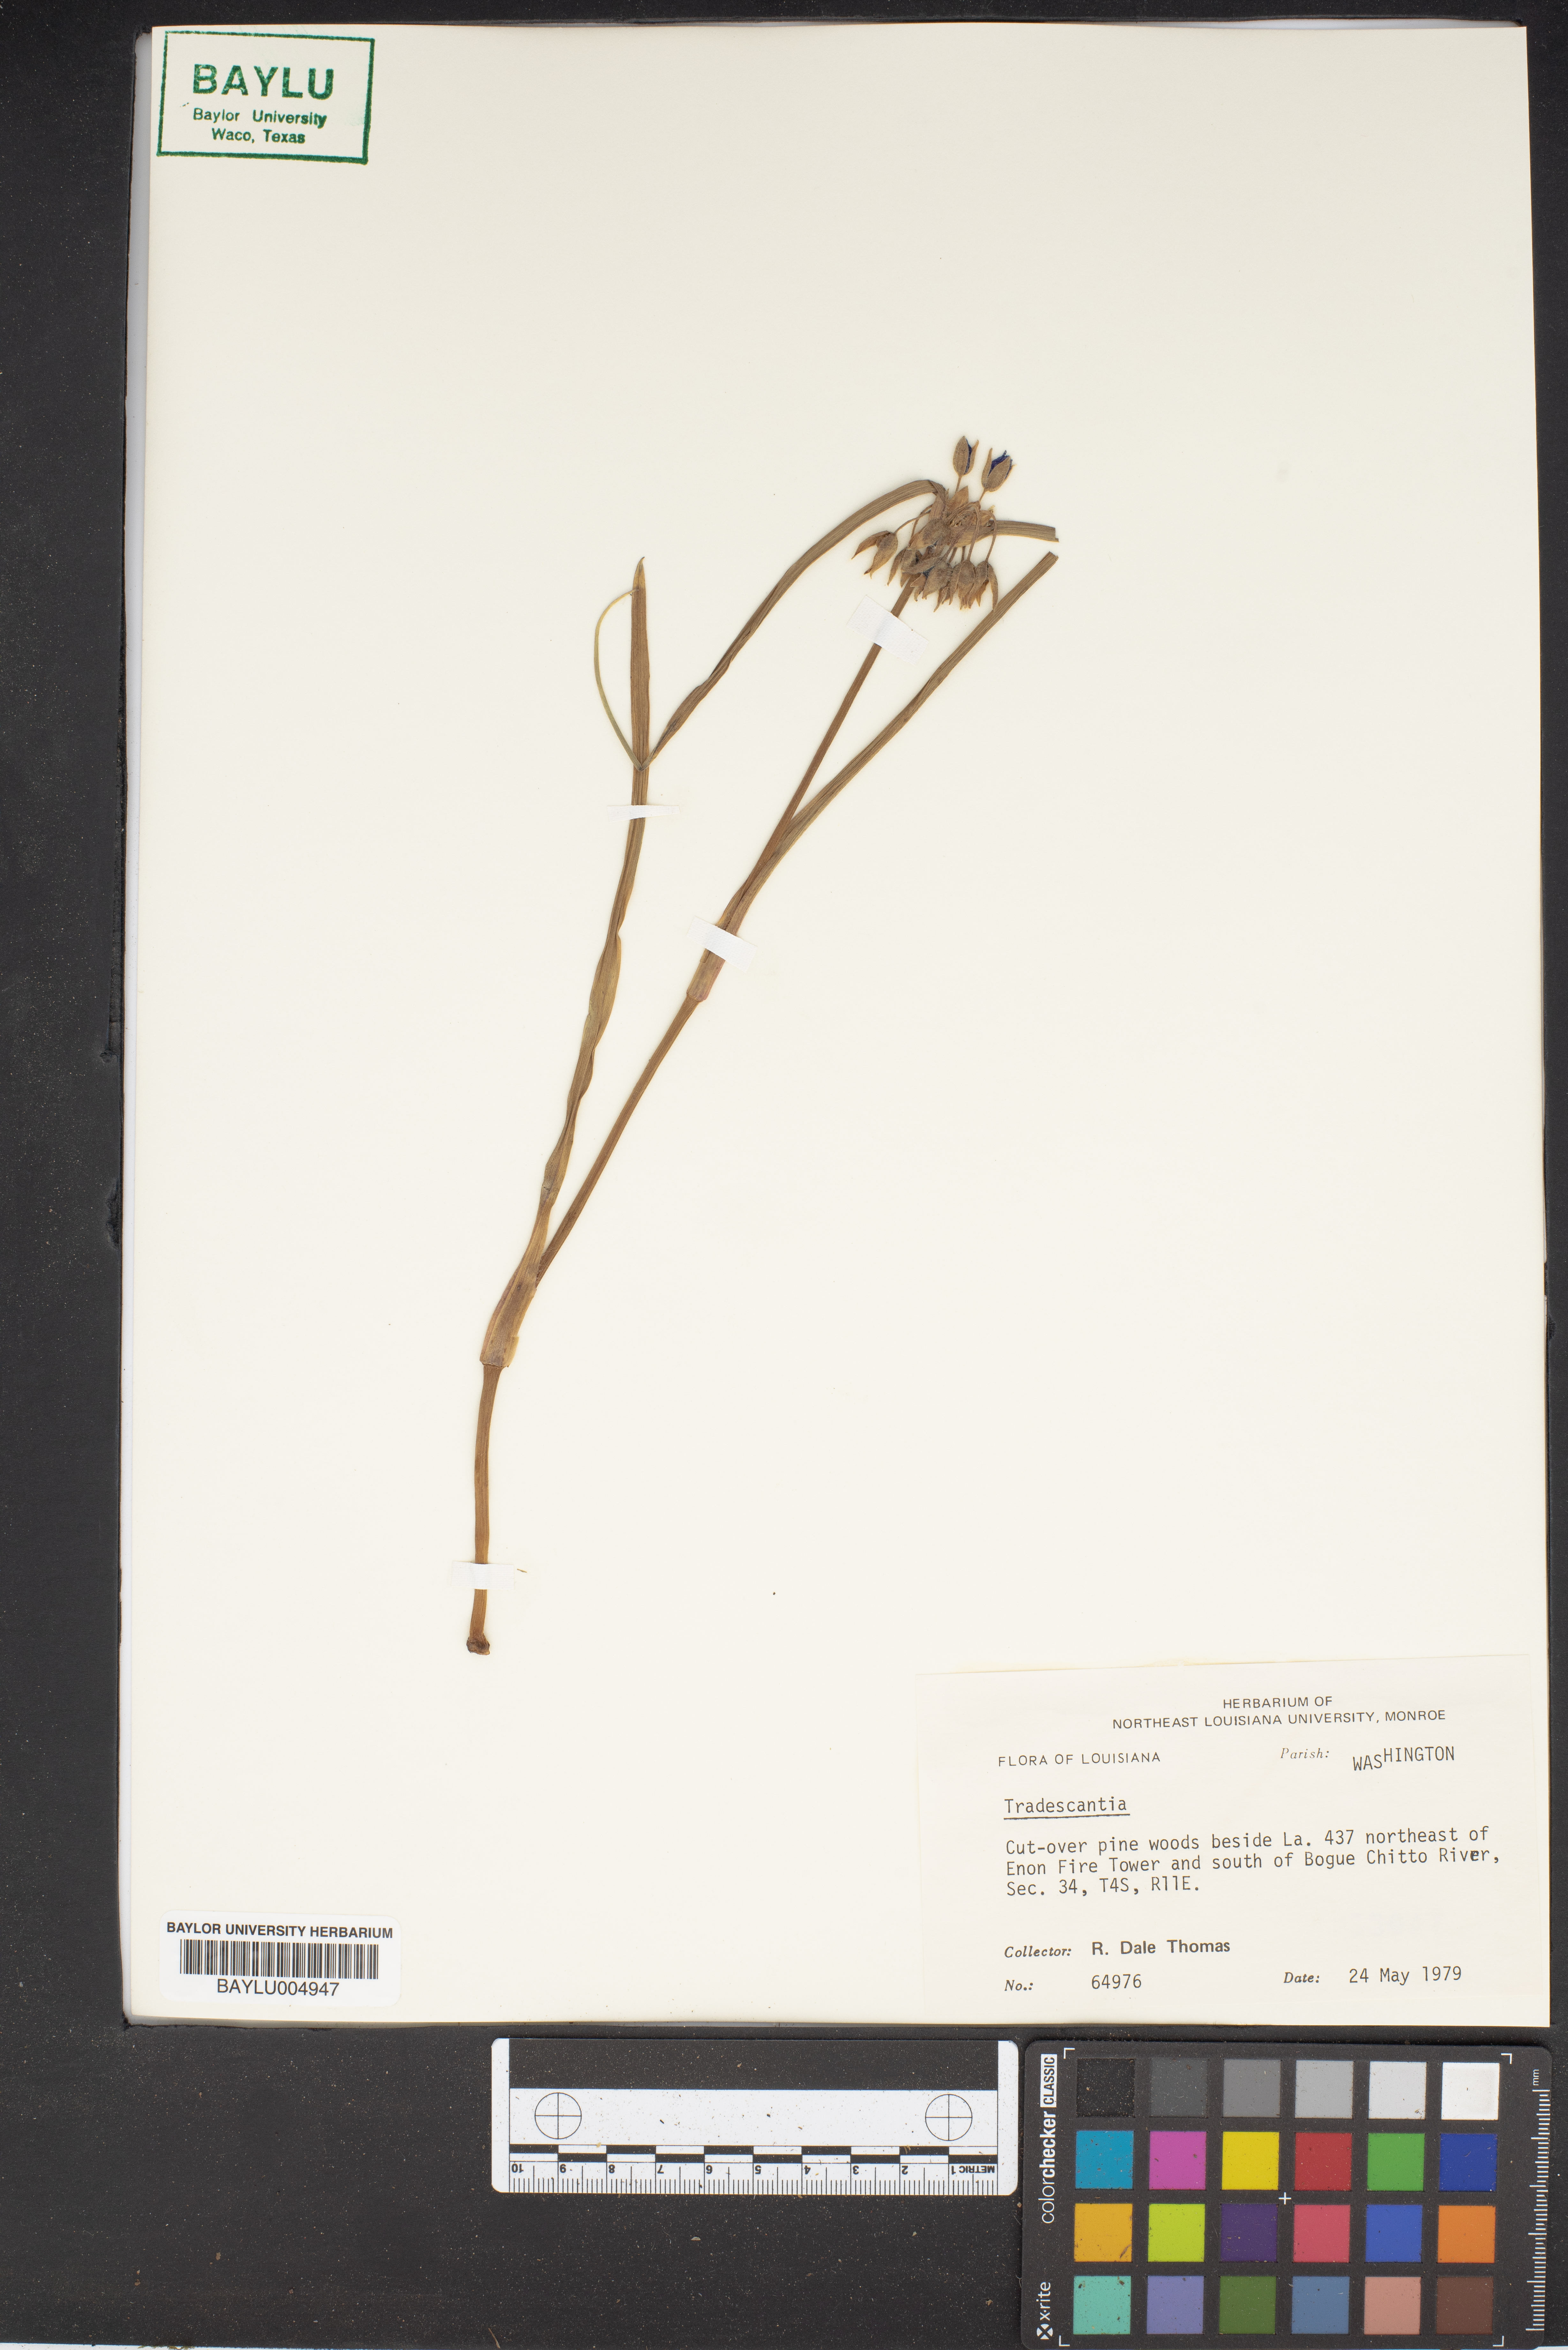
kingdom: Plantae
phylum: Tracheophyta
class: Liliopsida
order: Commelinales
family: Commelinaceae
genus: Tradescantia
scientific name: Tradescantia
